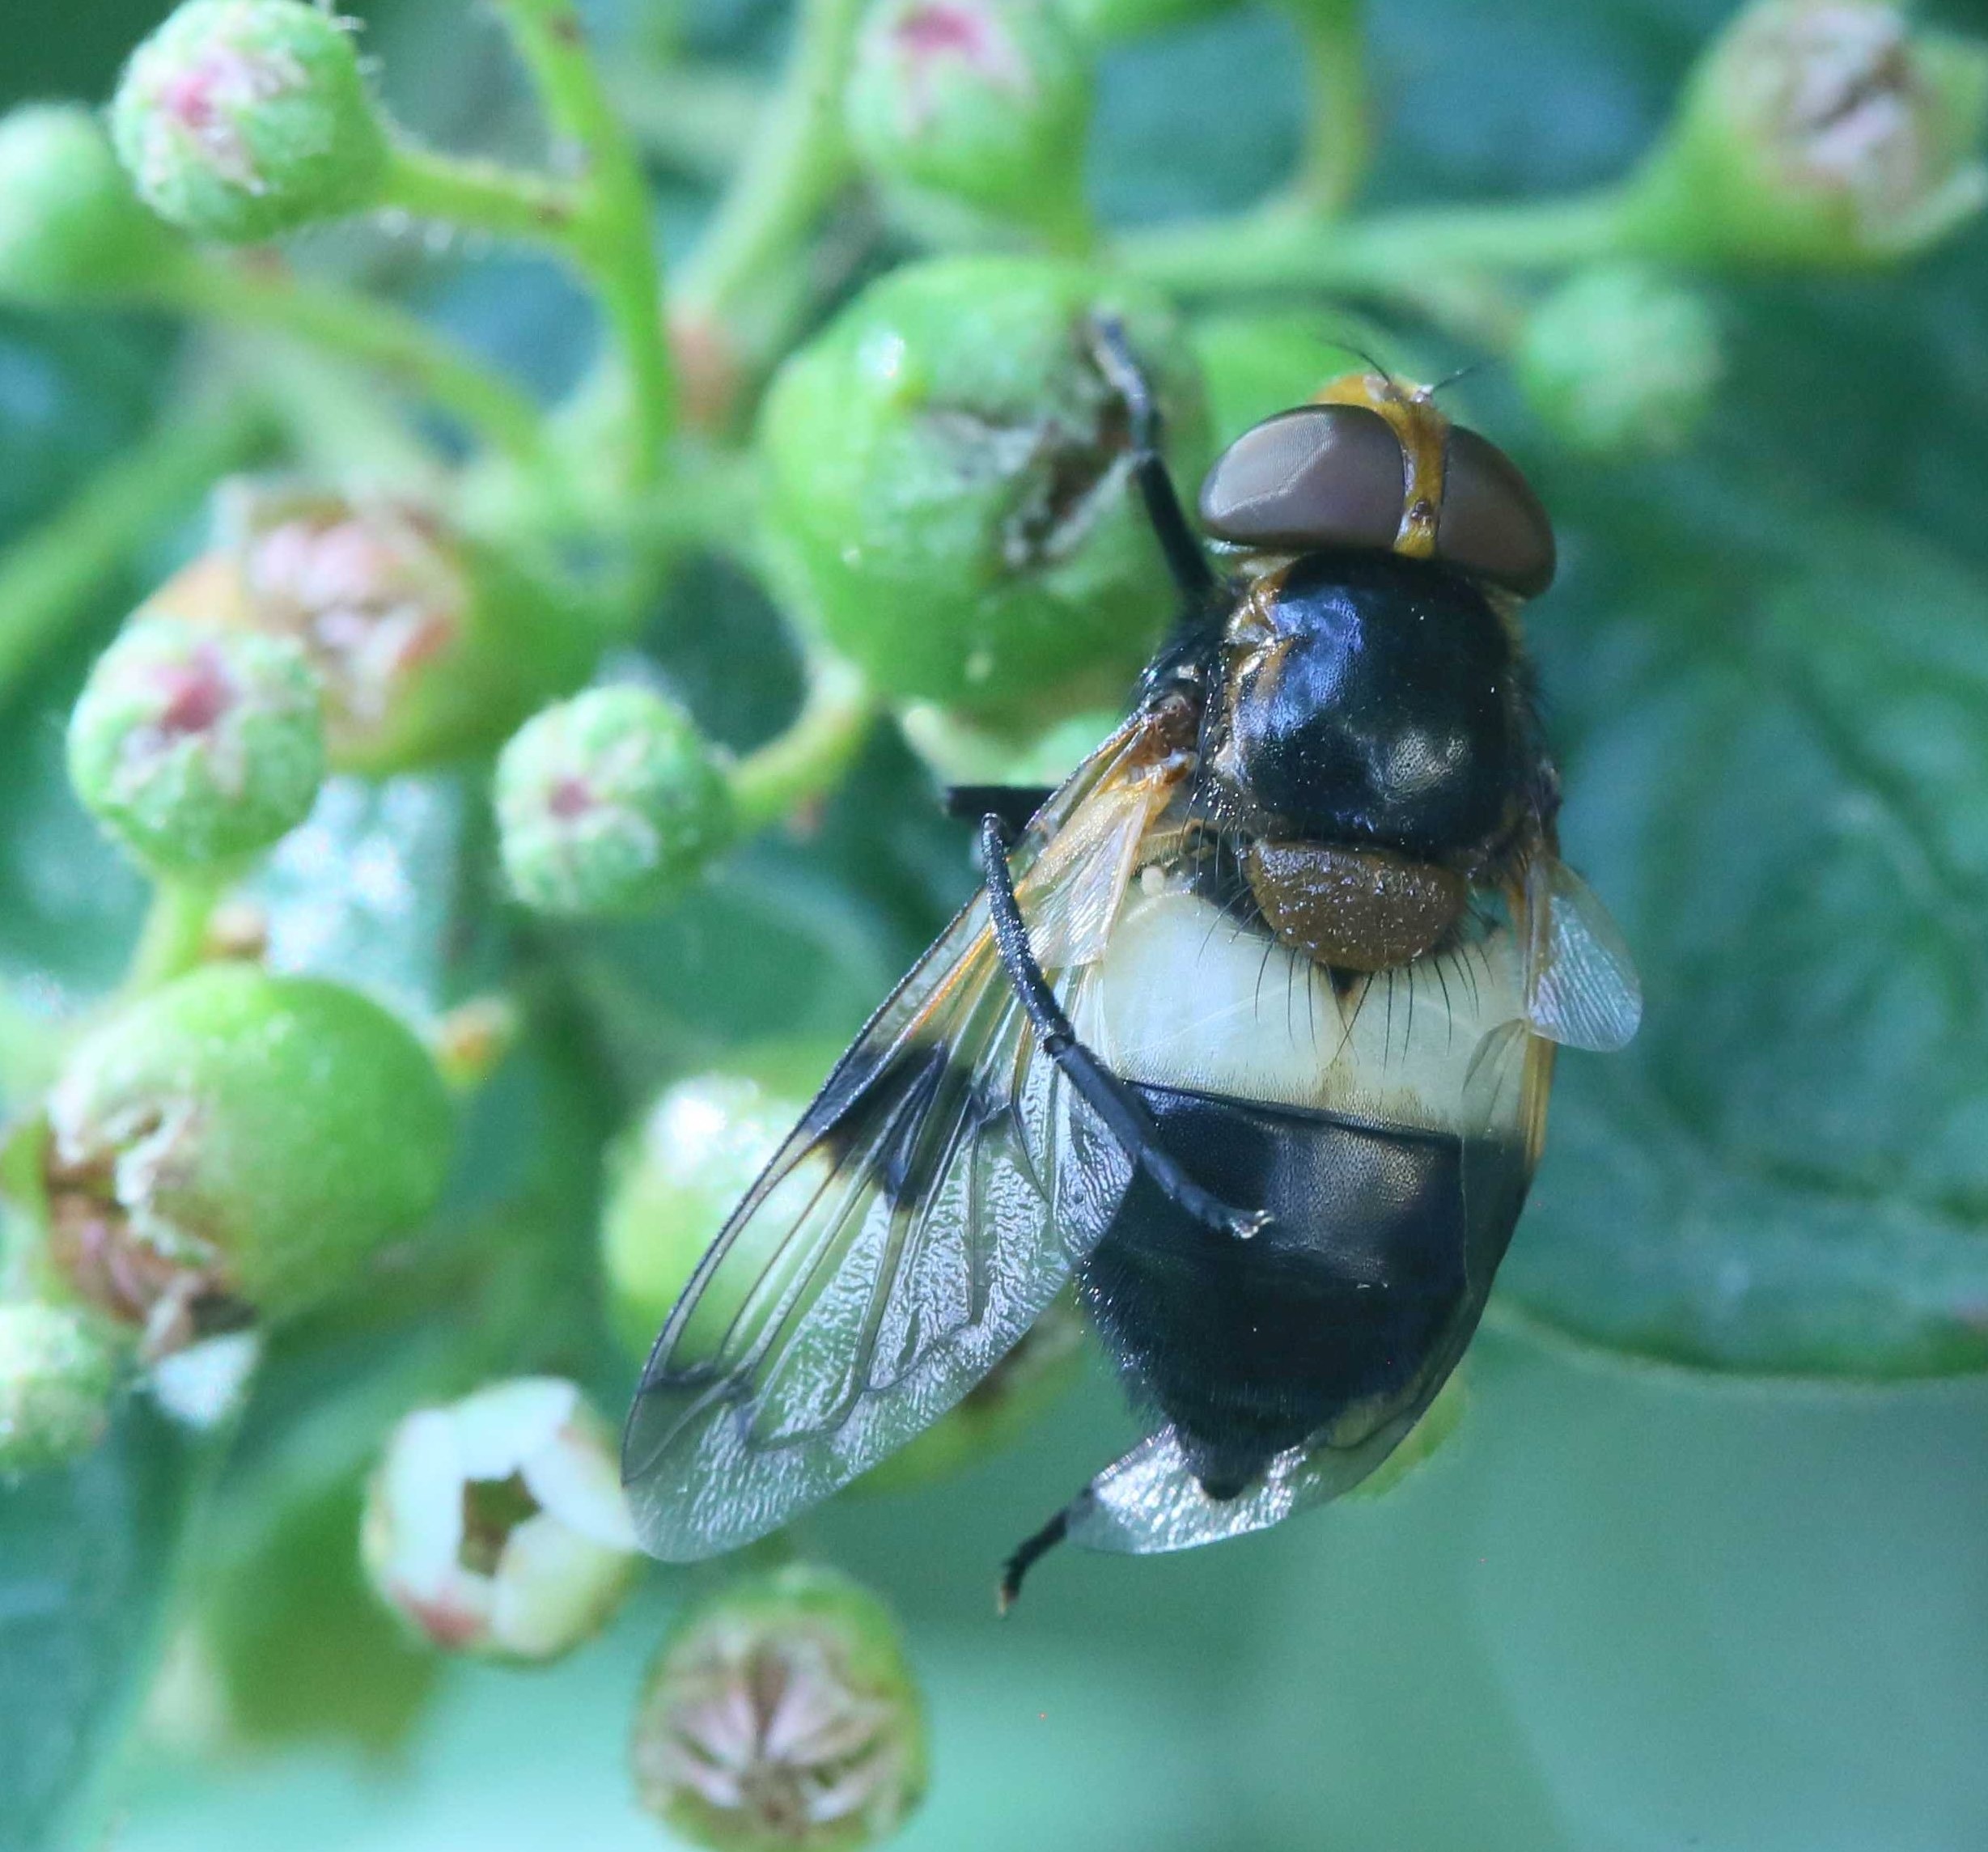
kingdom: Animalia
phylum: Arthropoda
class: Insecta
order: Diptera
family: Syrphidae
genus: Volucella
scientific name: Volucella pellucens
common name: Hvidbåndet humlesvirreflue
